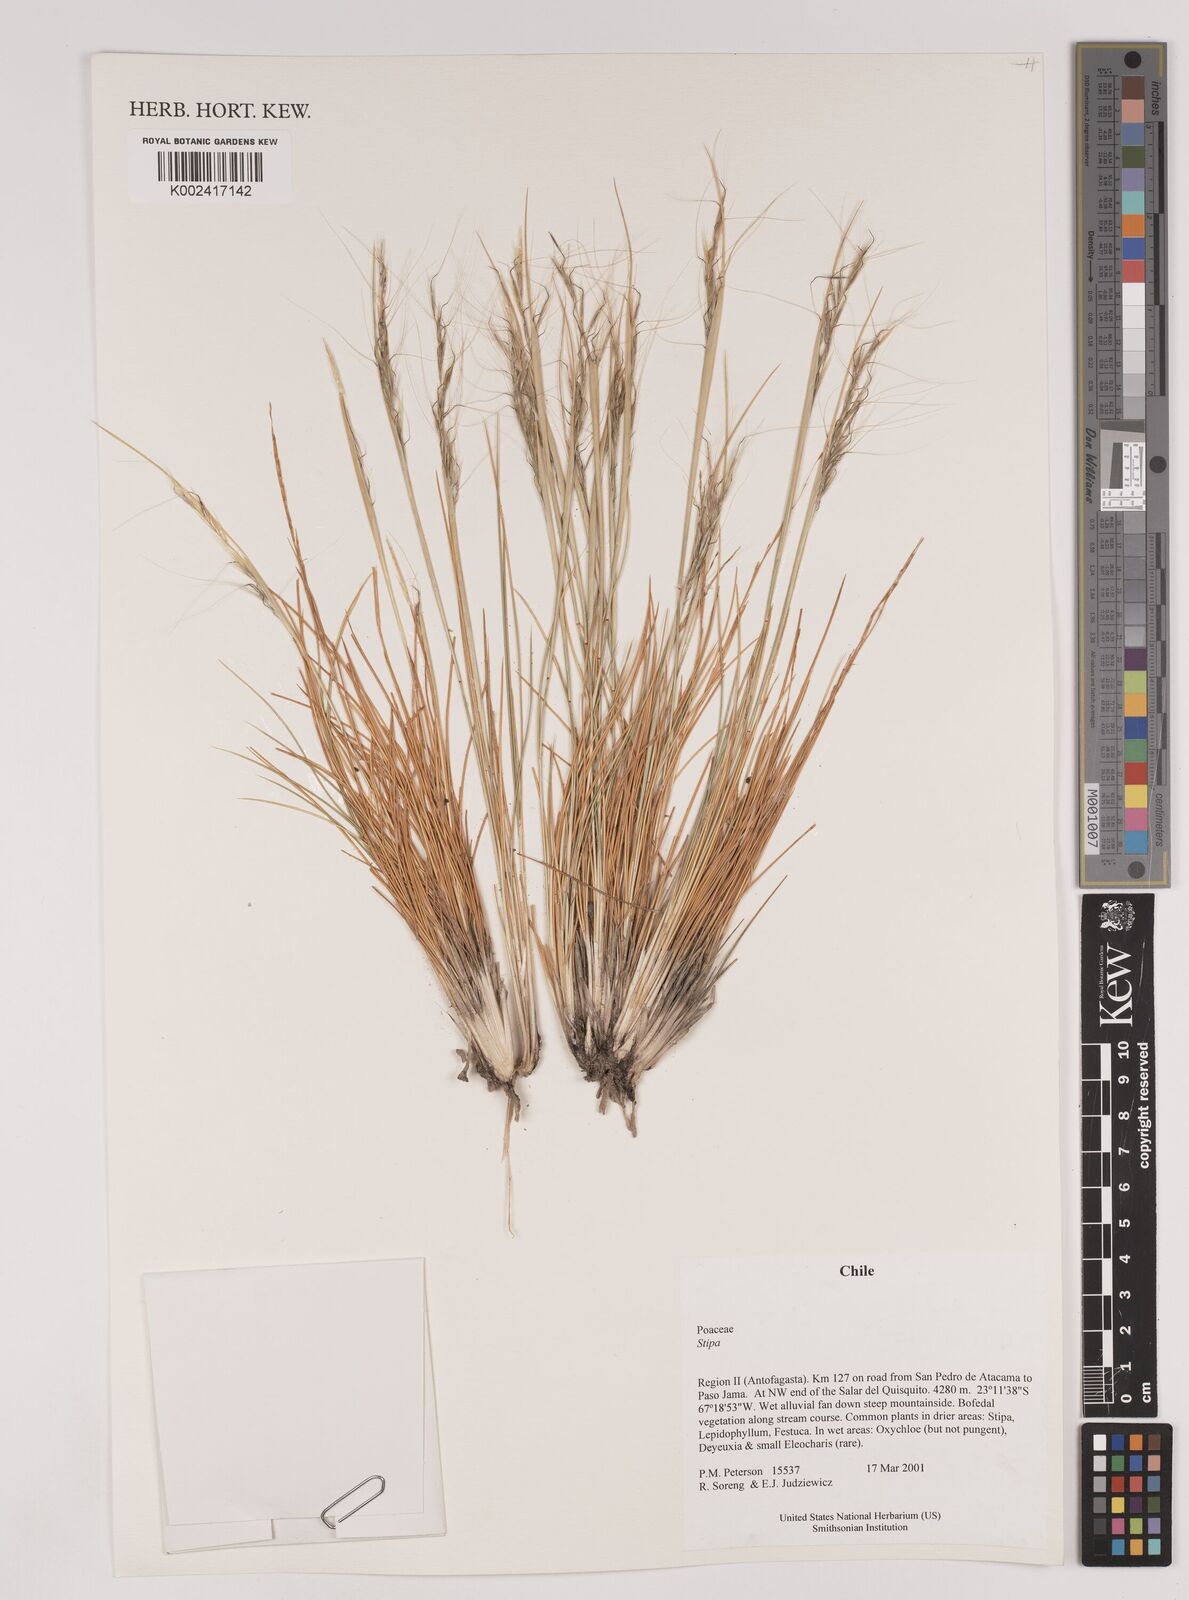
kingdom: Plantae
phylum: Tracheophyta
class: Liliopsida
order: Poales
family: Poaceae
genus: Stipa
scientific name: Stipa
